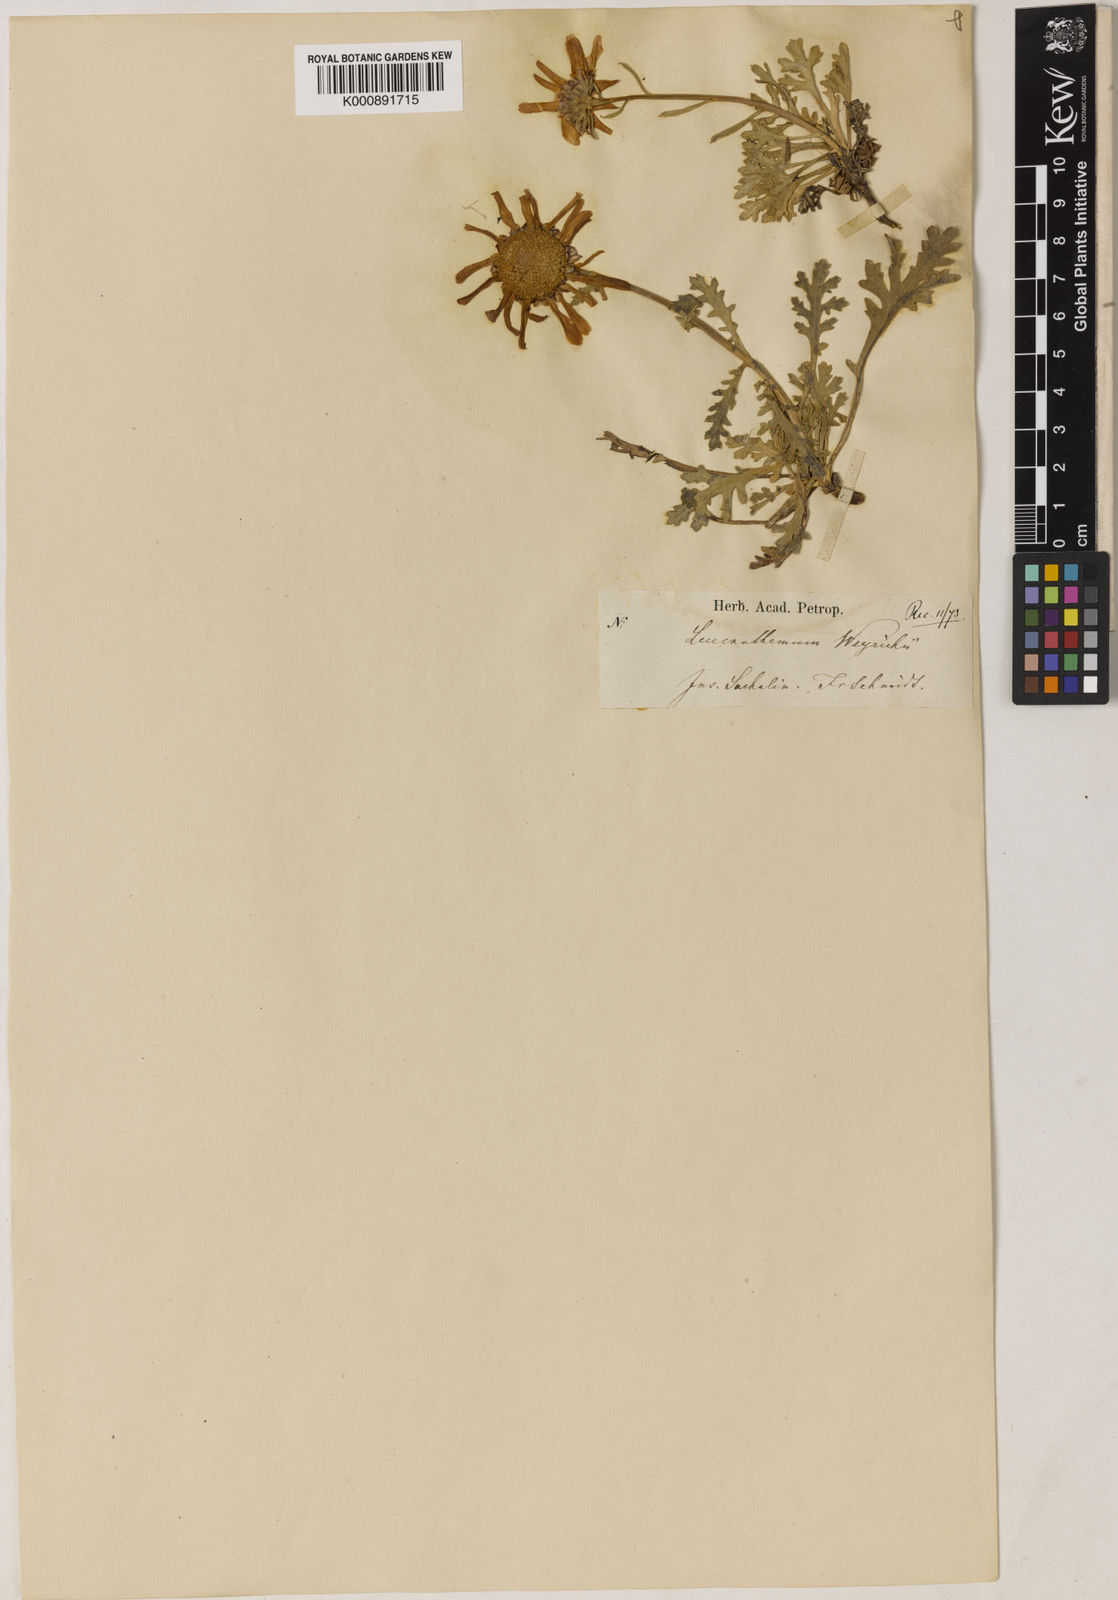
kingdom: Plantae
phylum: Tracheophyta
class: Magnoliopsida
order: Asterales
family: Asteraceae
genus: Chrysanthemum
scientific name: Chrysanthemum zawadzkii
